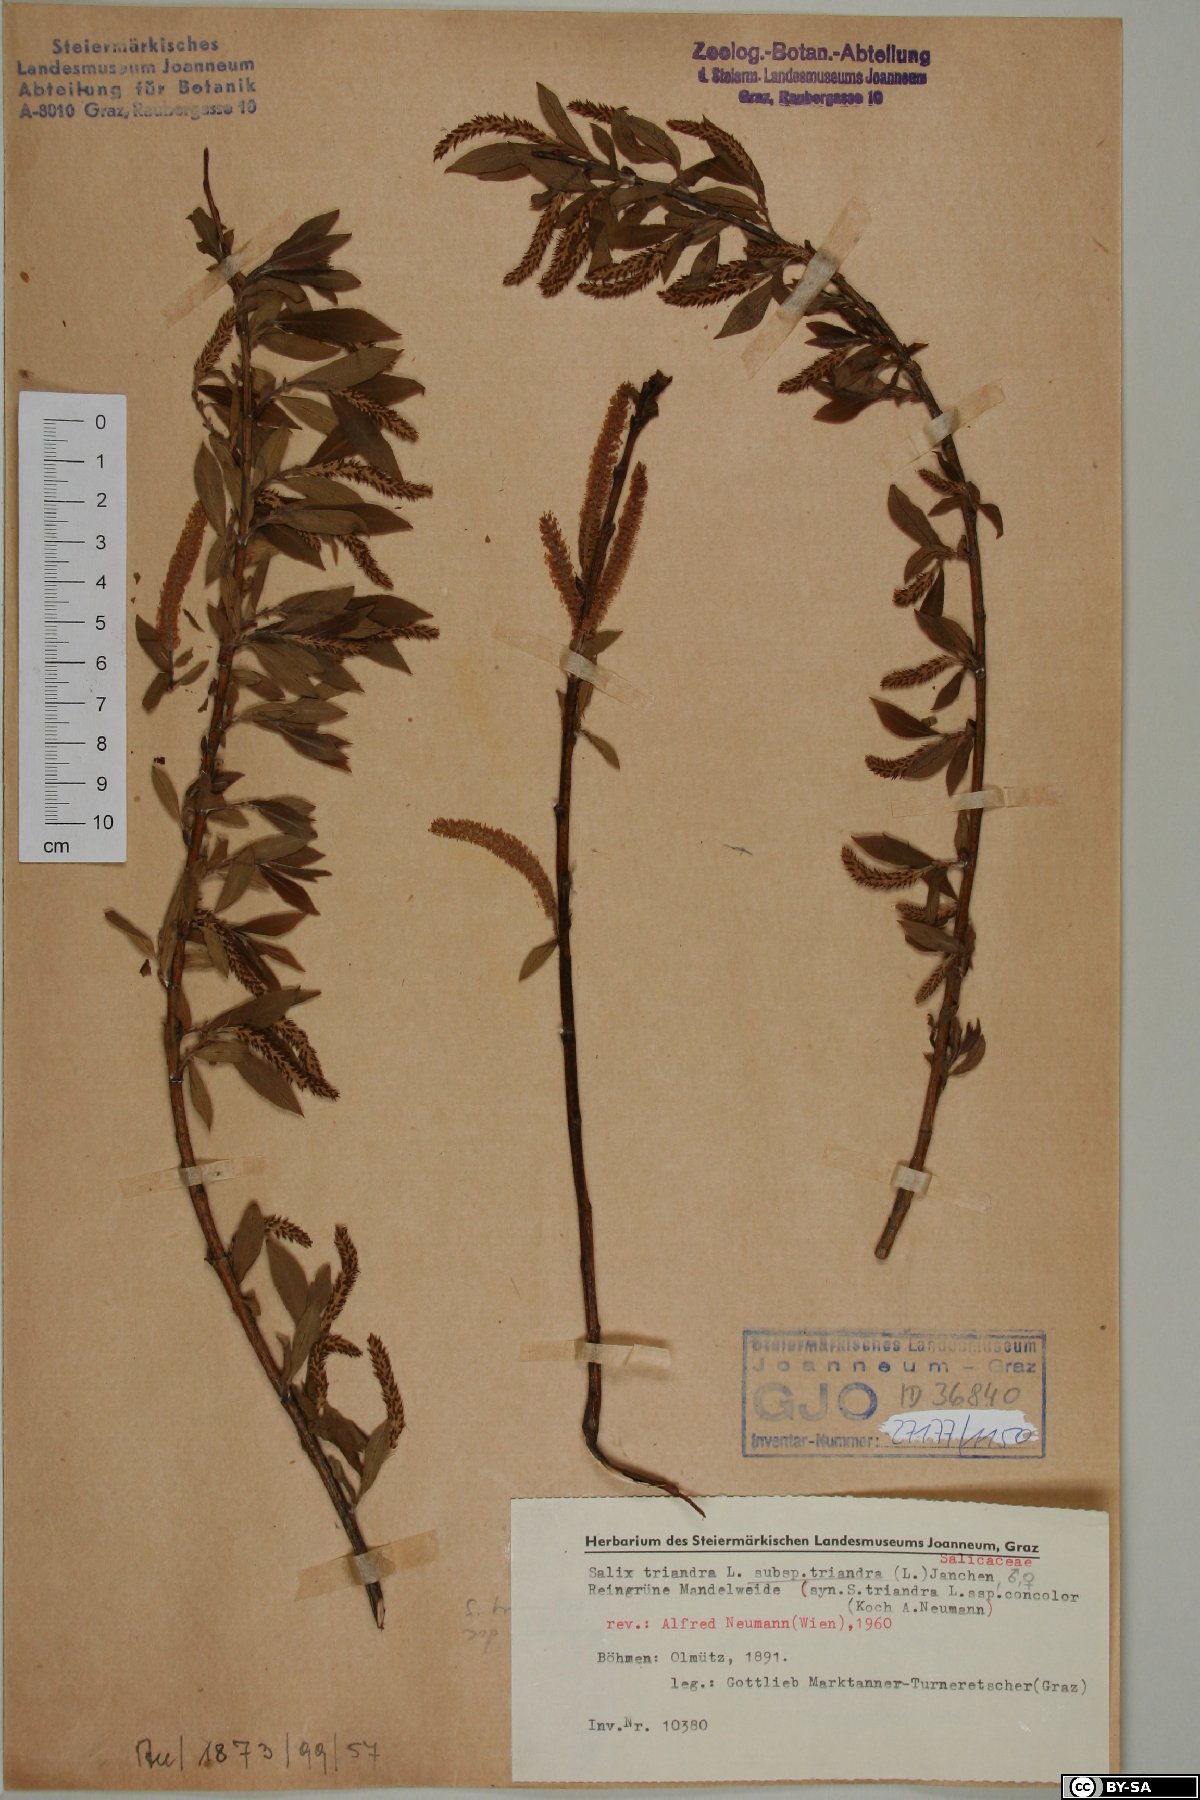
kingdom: Plantae
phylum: Tracheophyta
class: Magnoliopsida
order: Malpighiales
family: Salicaceae
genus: Salix
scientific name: Salix triandra
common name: Almond willow
